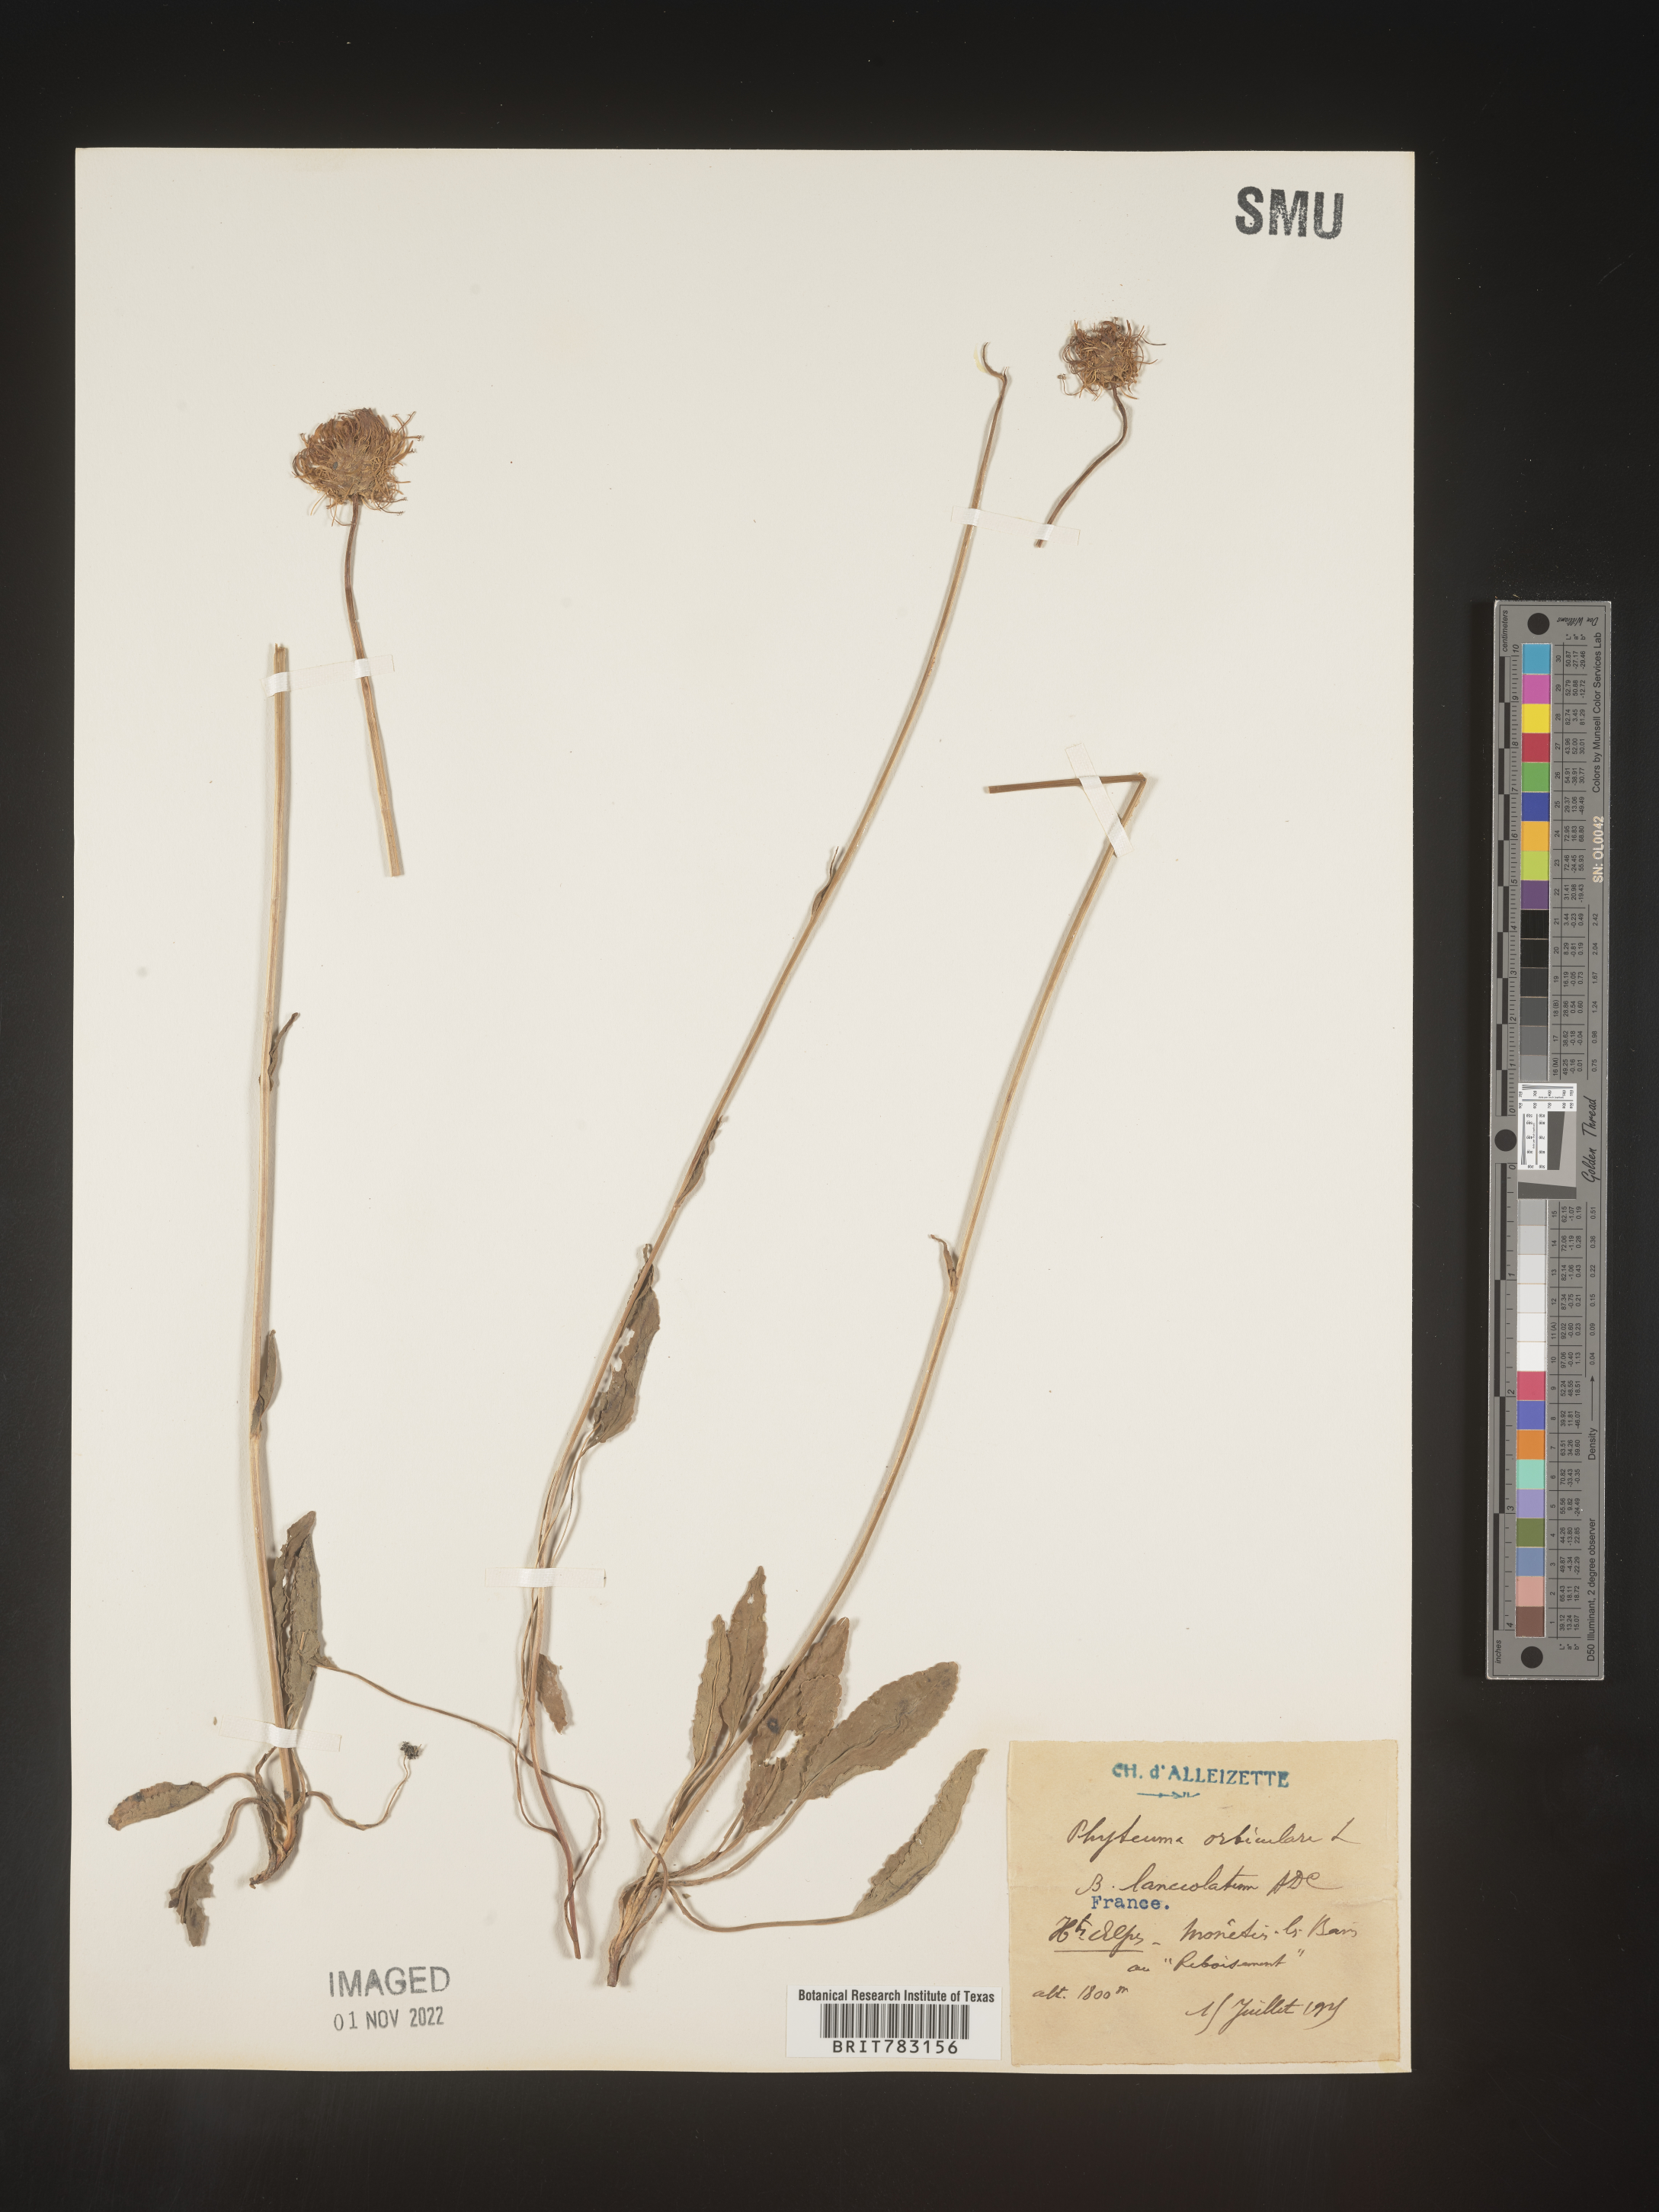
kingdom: Plantae
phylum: Tracheophyta
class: Magnoliopsida
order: Asterales
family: Campanulaceae
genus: Phyteuma
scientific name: Phyteuma
